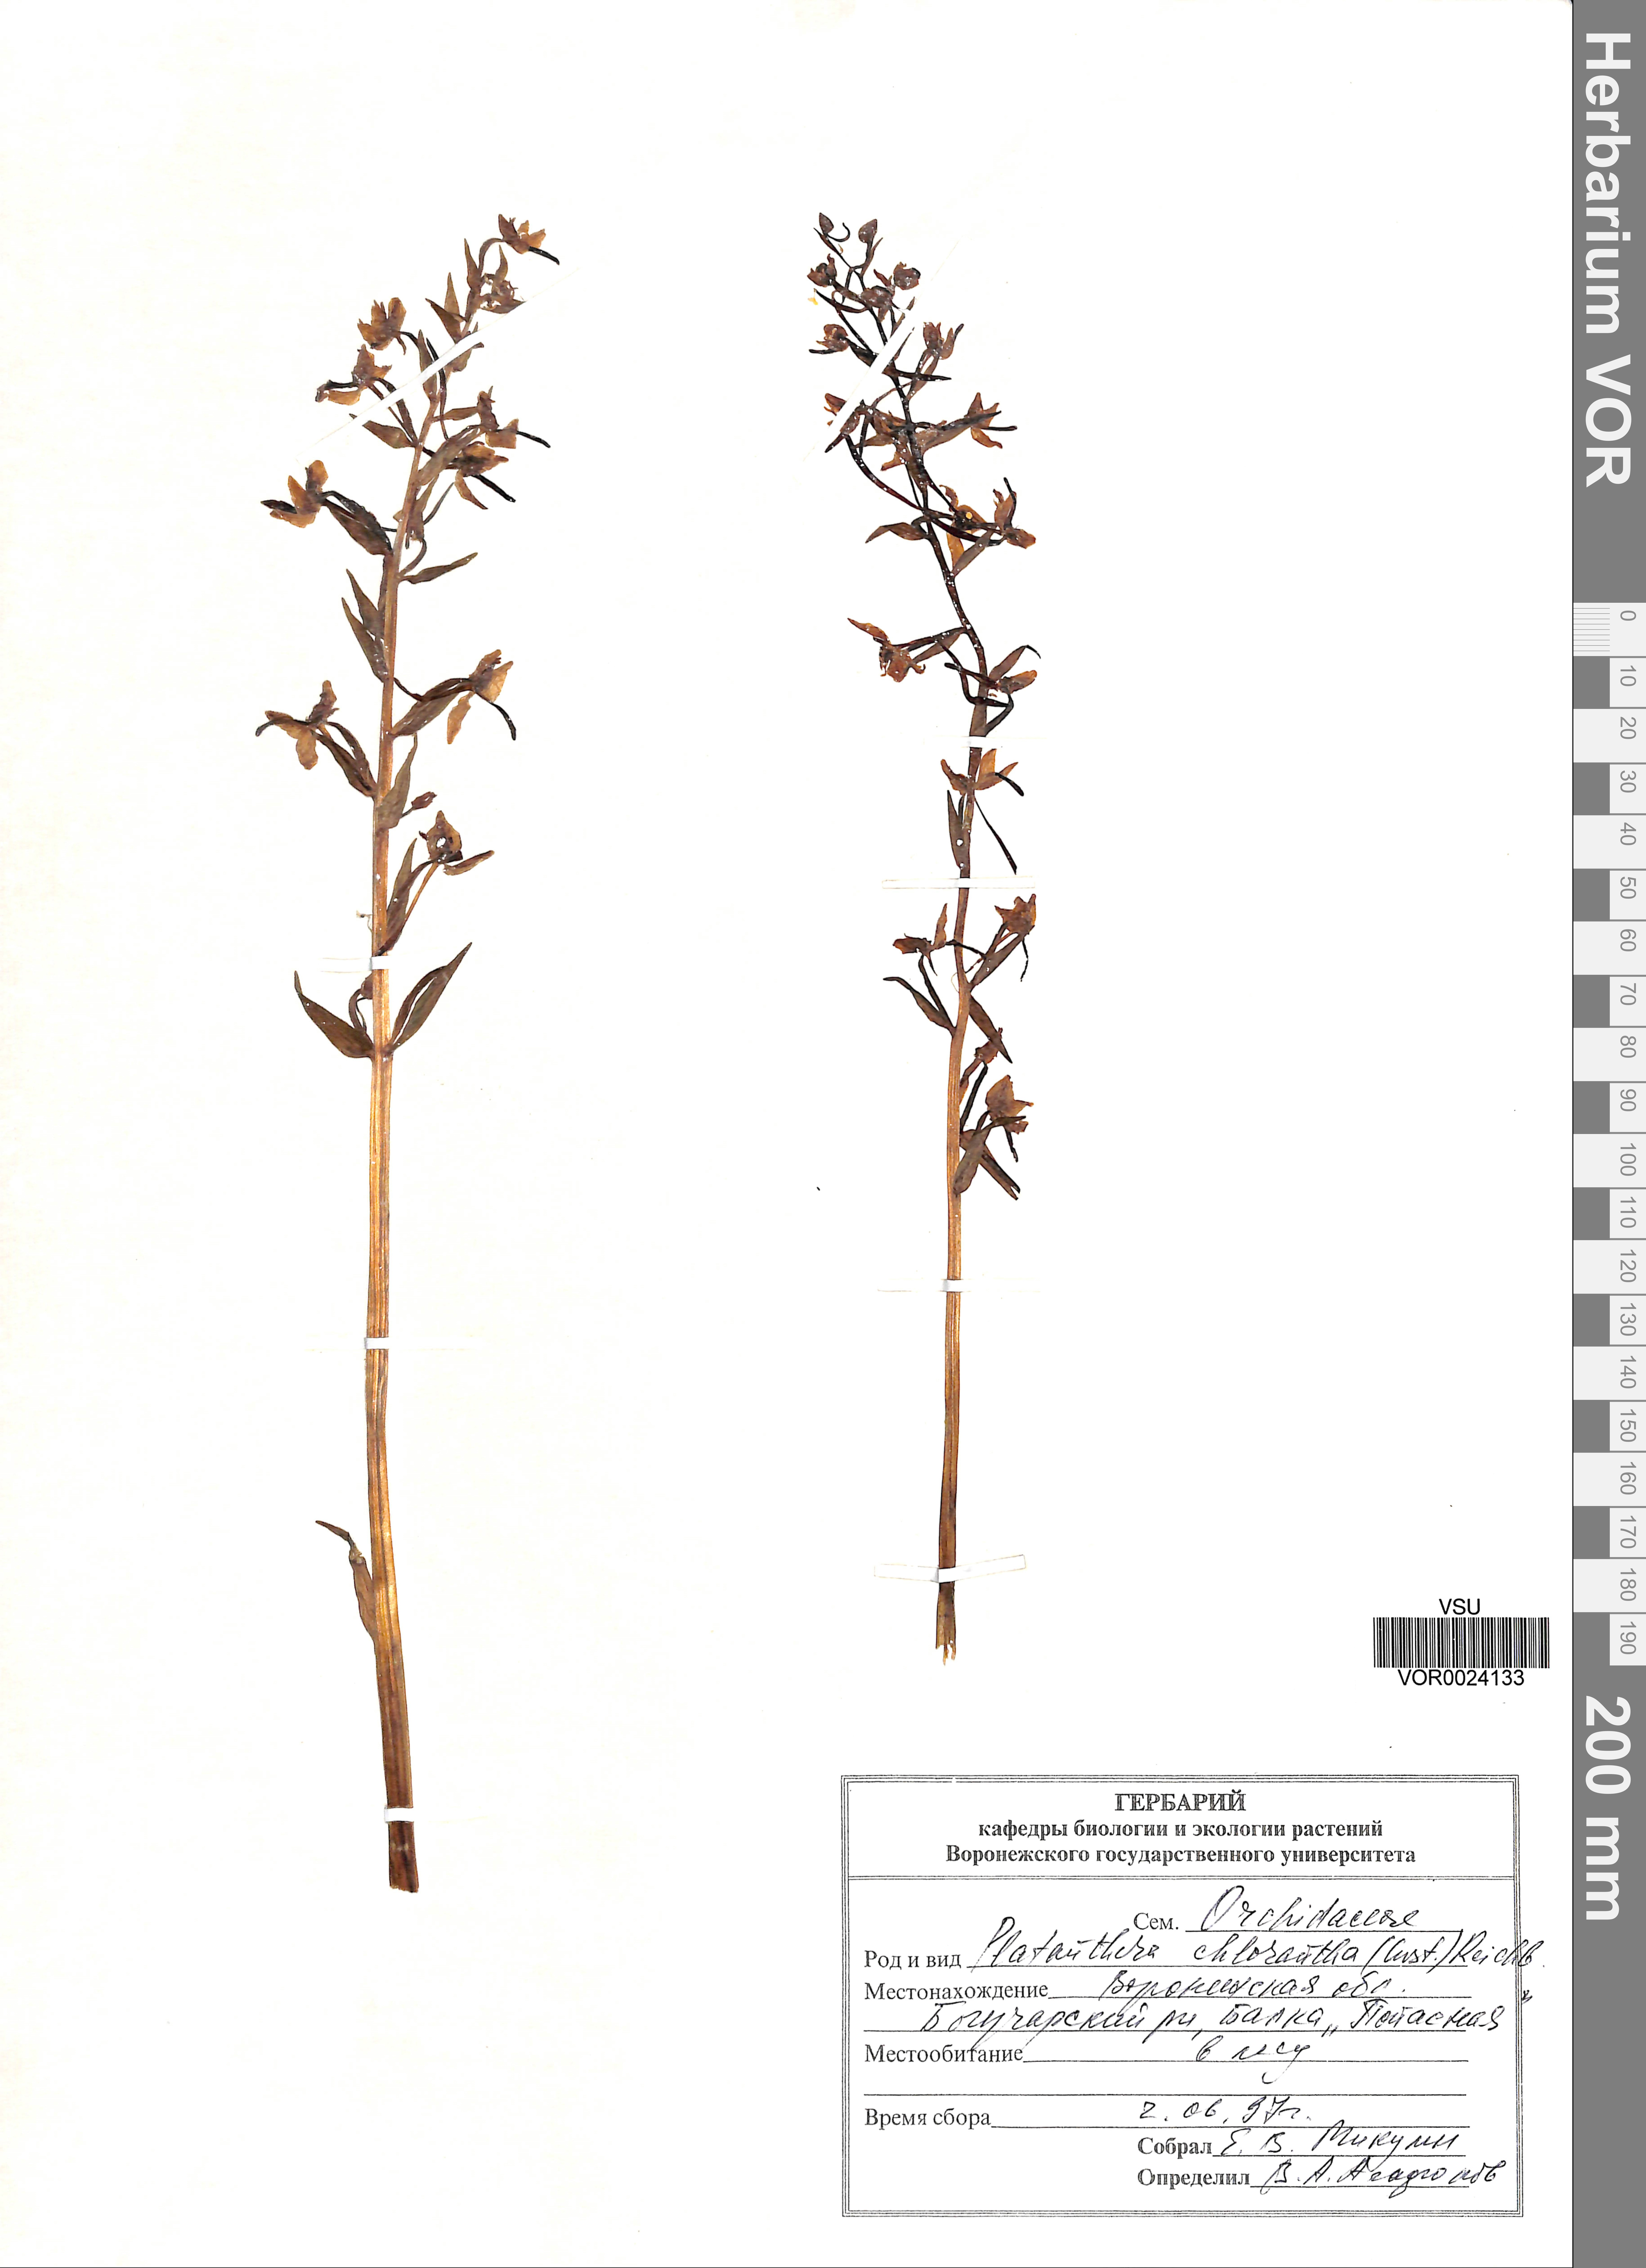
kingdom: Plantae
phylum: Tracheophyta
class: Liliopsida
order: Asparagales
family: Orchidaceae
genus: Platanthera
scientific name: Platanthera chlorantha
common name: Greater butterfly-orchid
